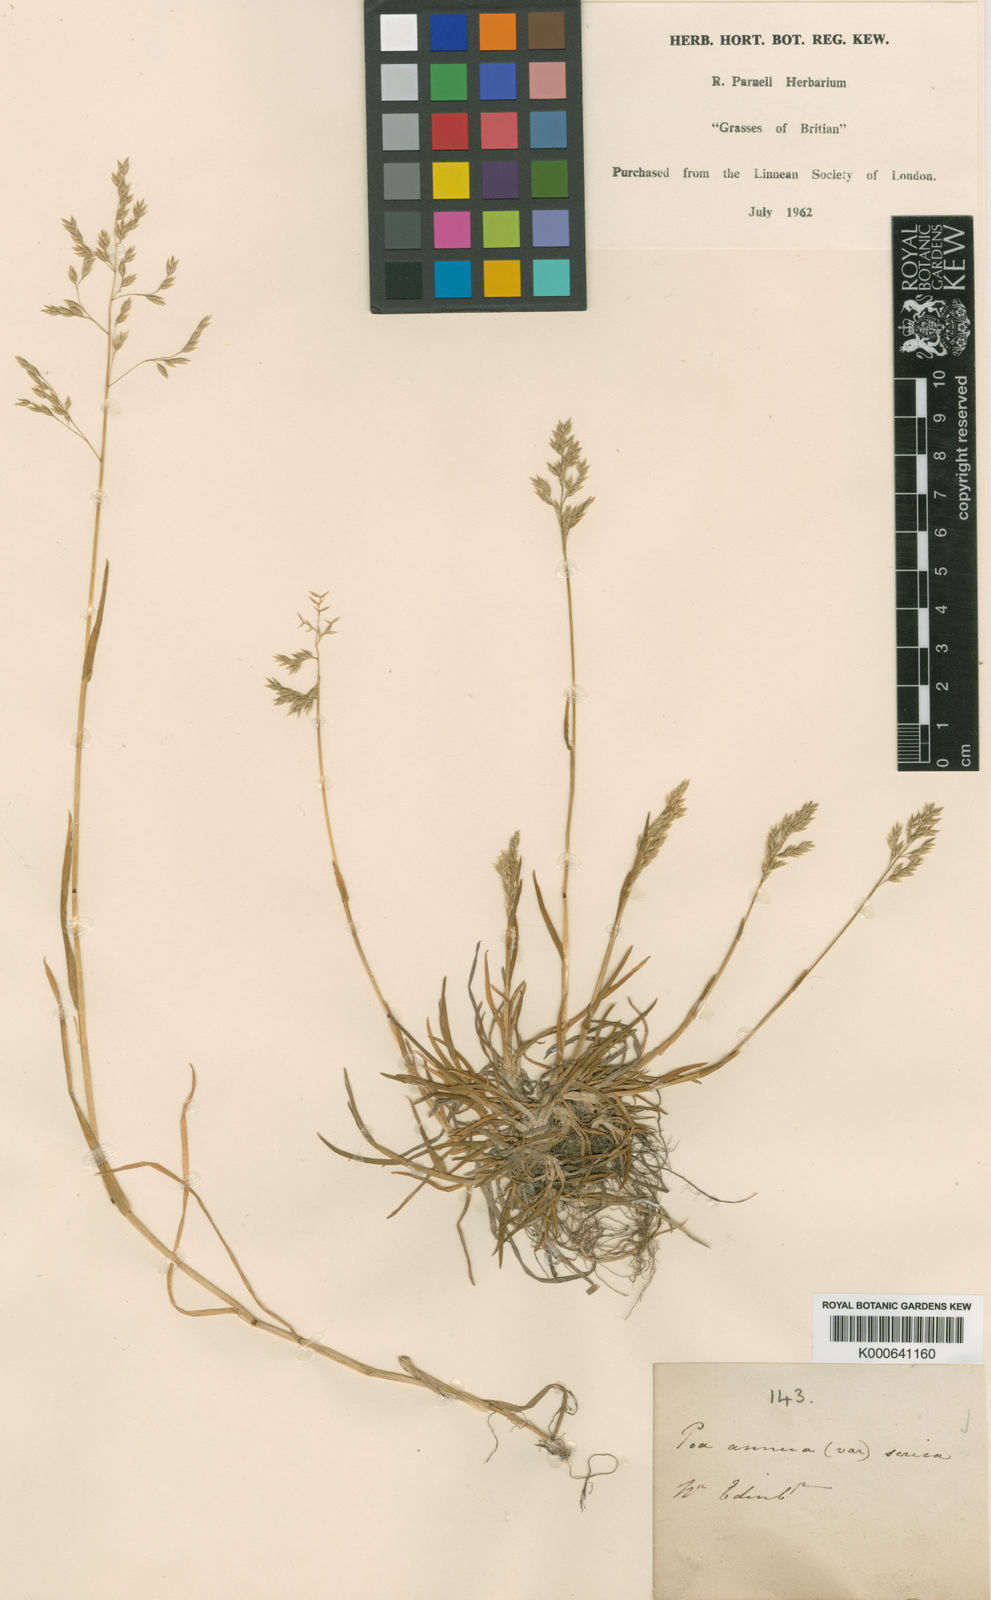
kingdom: Plantae
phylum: Tracheophyta
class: Liliopsida
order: Poales
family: Poaceae
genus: Poa
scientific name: Poa annua
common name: Annual bluegrass
